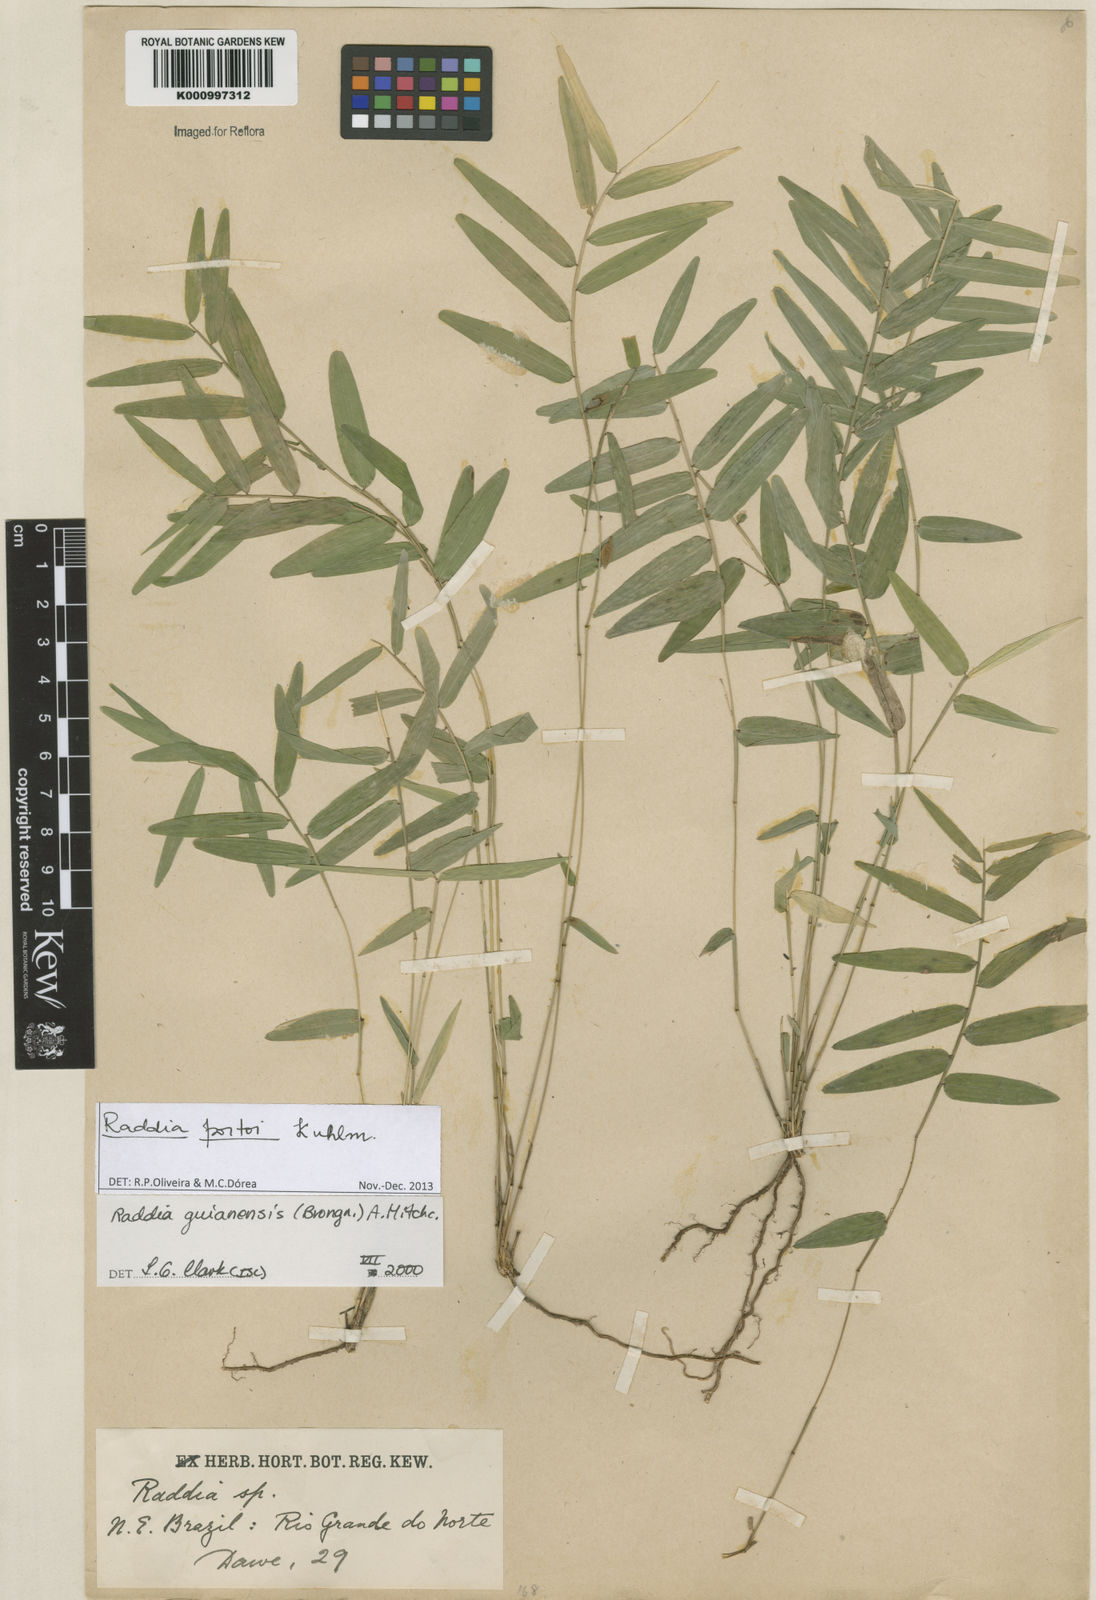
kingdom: Plantae
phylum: Tracheophyta
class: Liliopsida
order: Poales
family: Poaceae
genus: Raddia
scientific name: Raddia portoi
